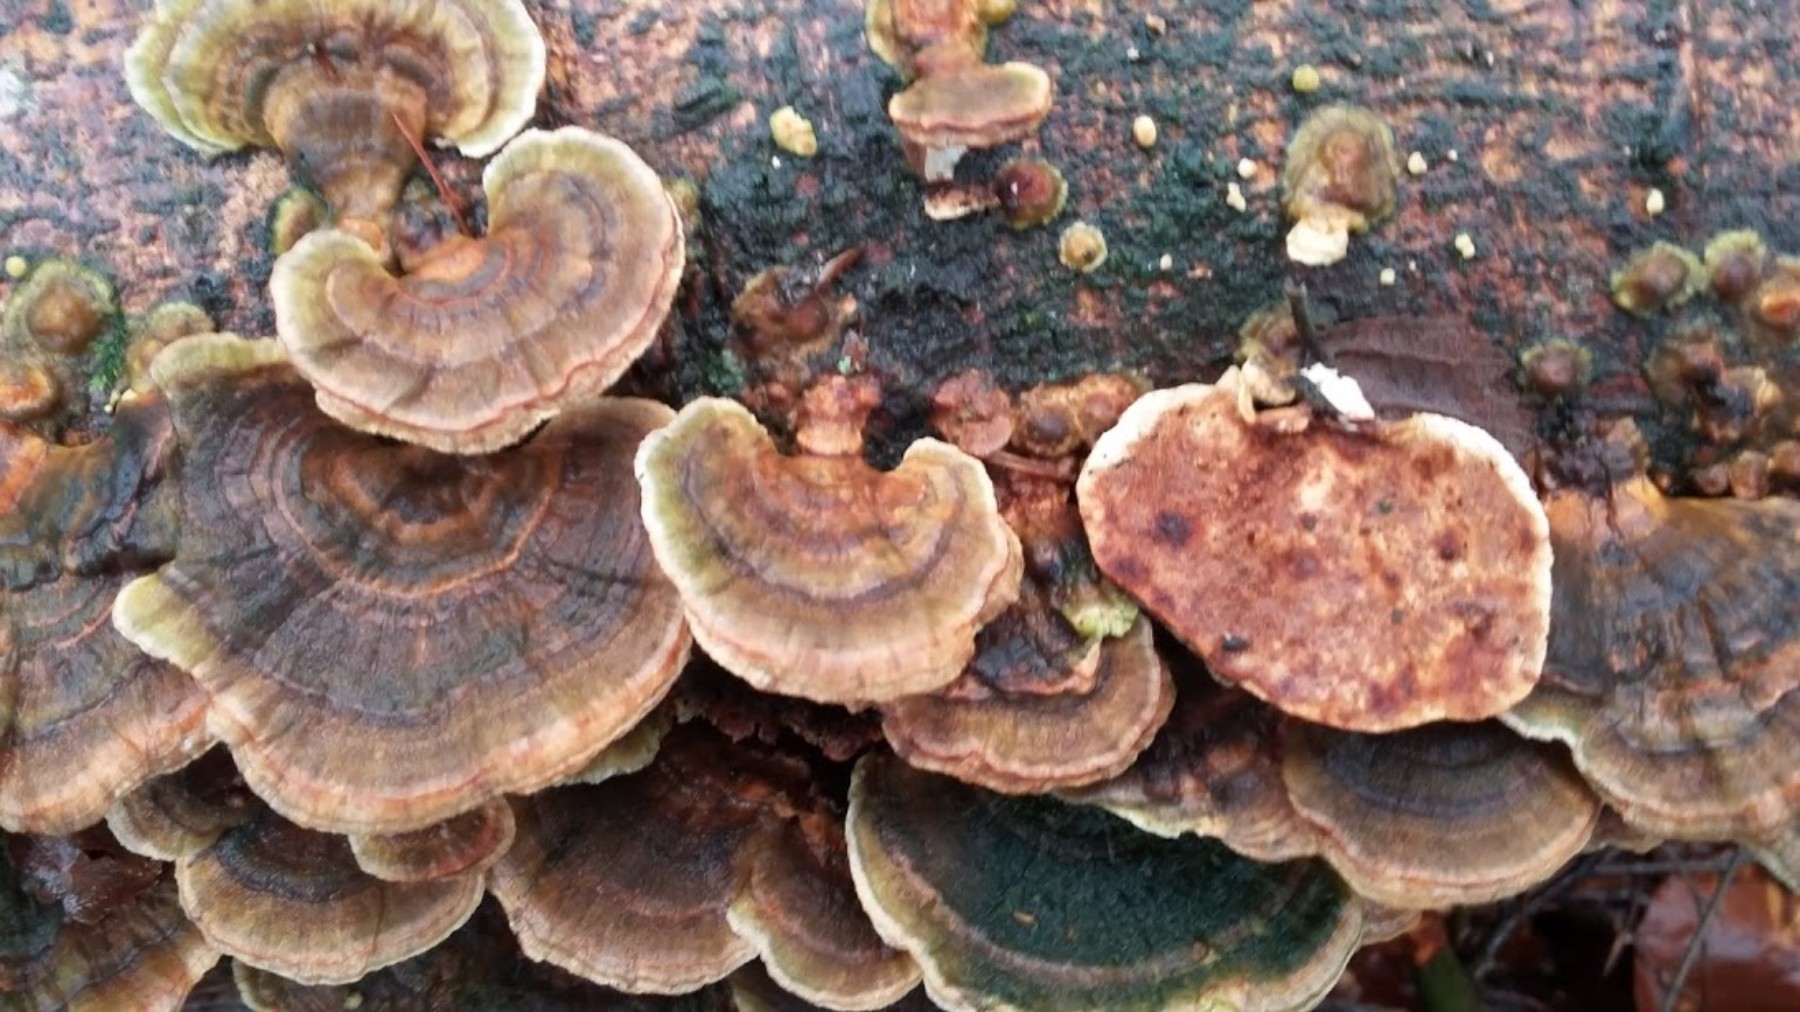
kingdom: Fungi
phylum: Basidiomycota
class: Agaricomycetes
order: Polyporales
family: Polyporaceae
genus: Trametes
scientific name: Trametes versicolor
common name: broget læderporesvamp
